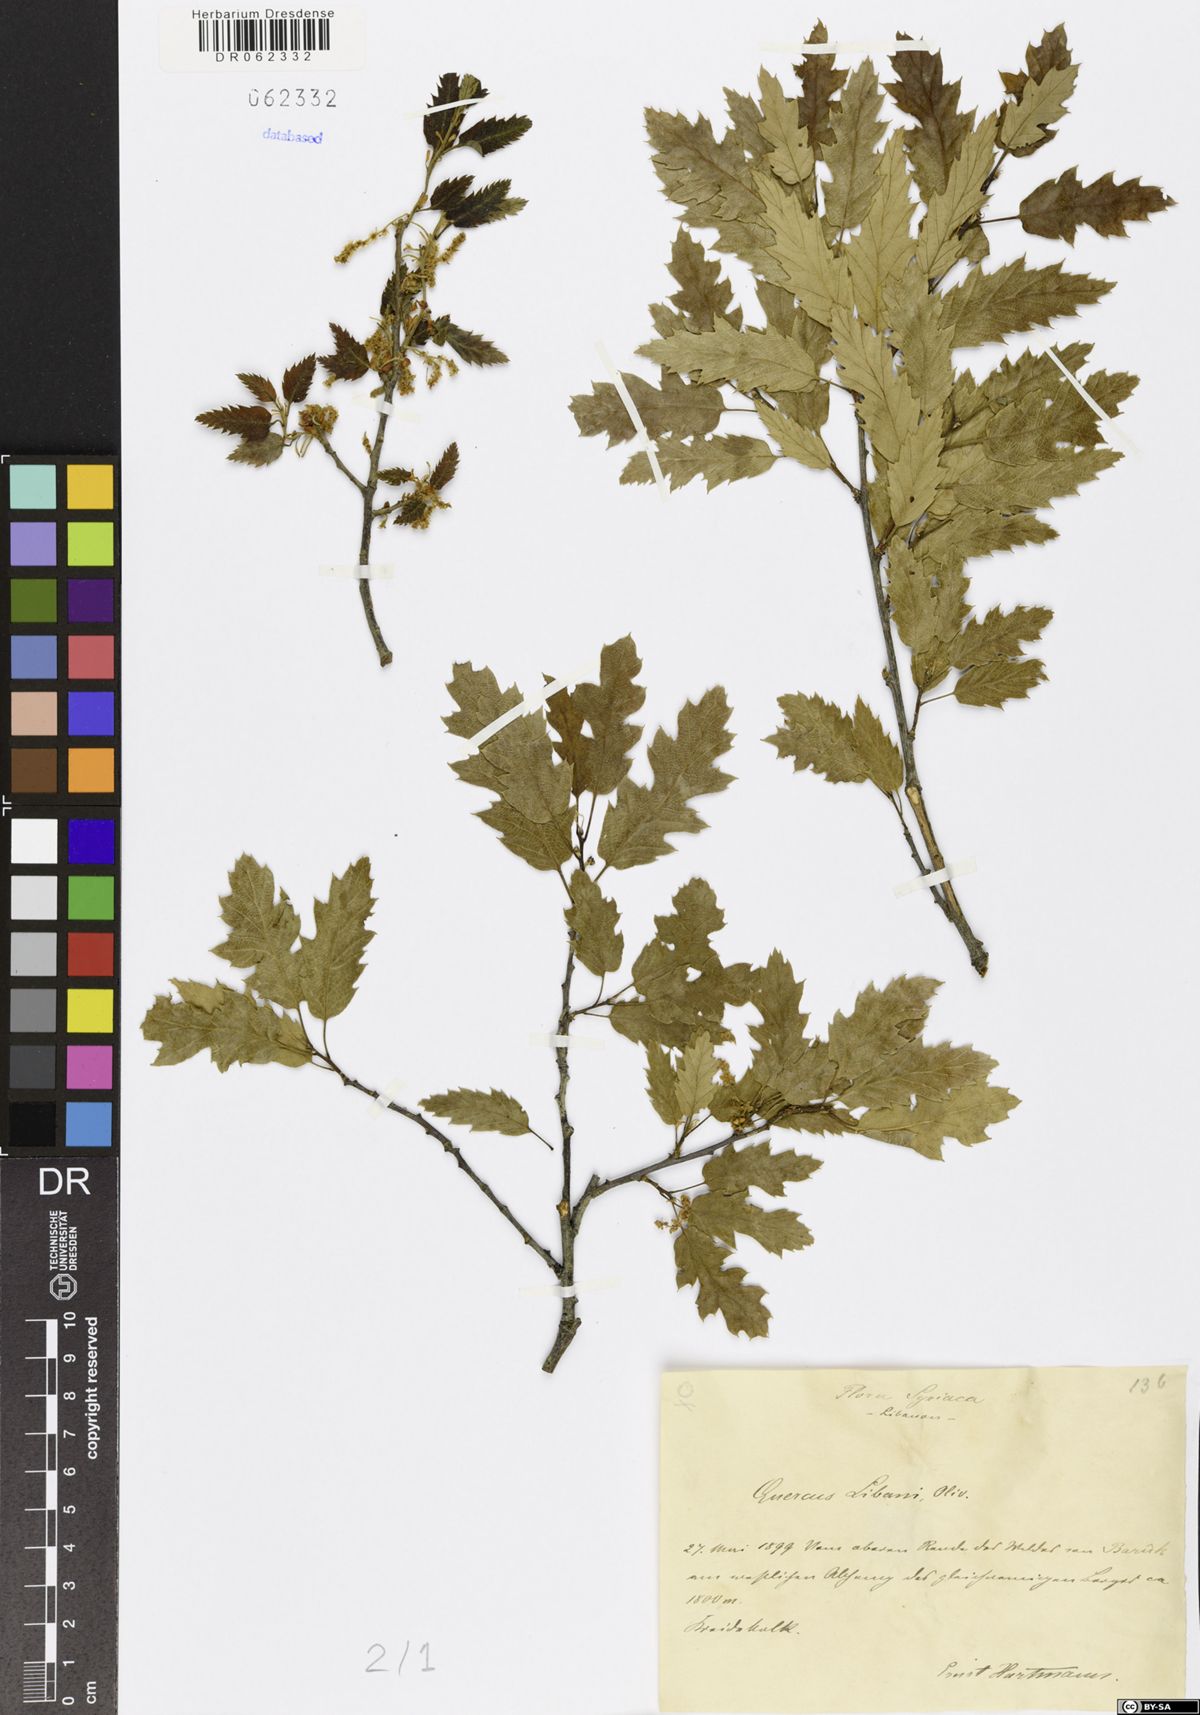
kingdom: Plantae
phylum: Tracheophyta
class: Magnoliopsida
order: Fagales
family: Fagaceae
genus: Quercus
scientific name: Quercus libani
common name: Lebanon oak
